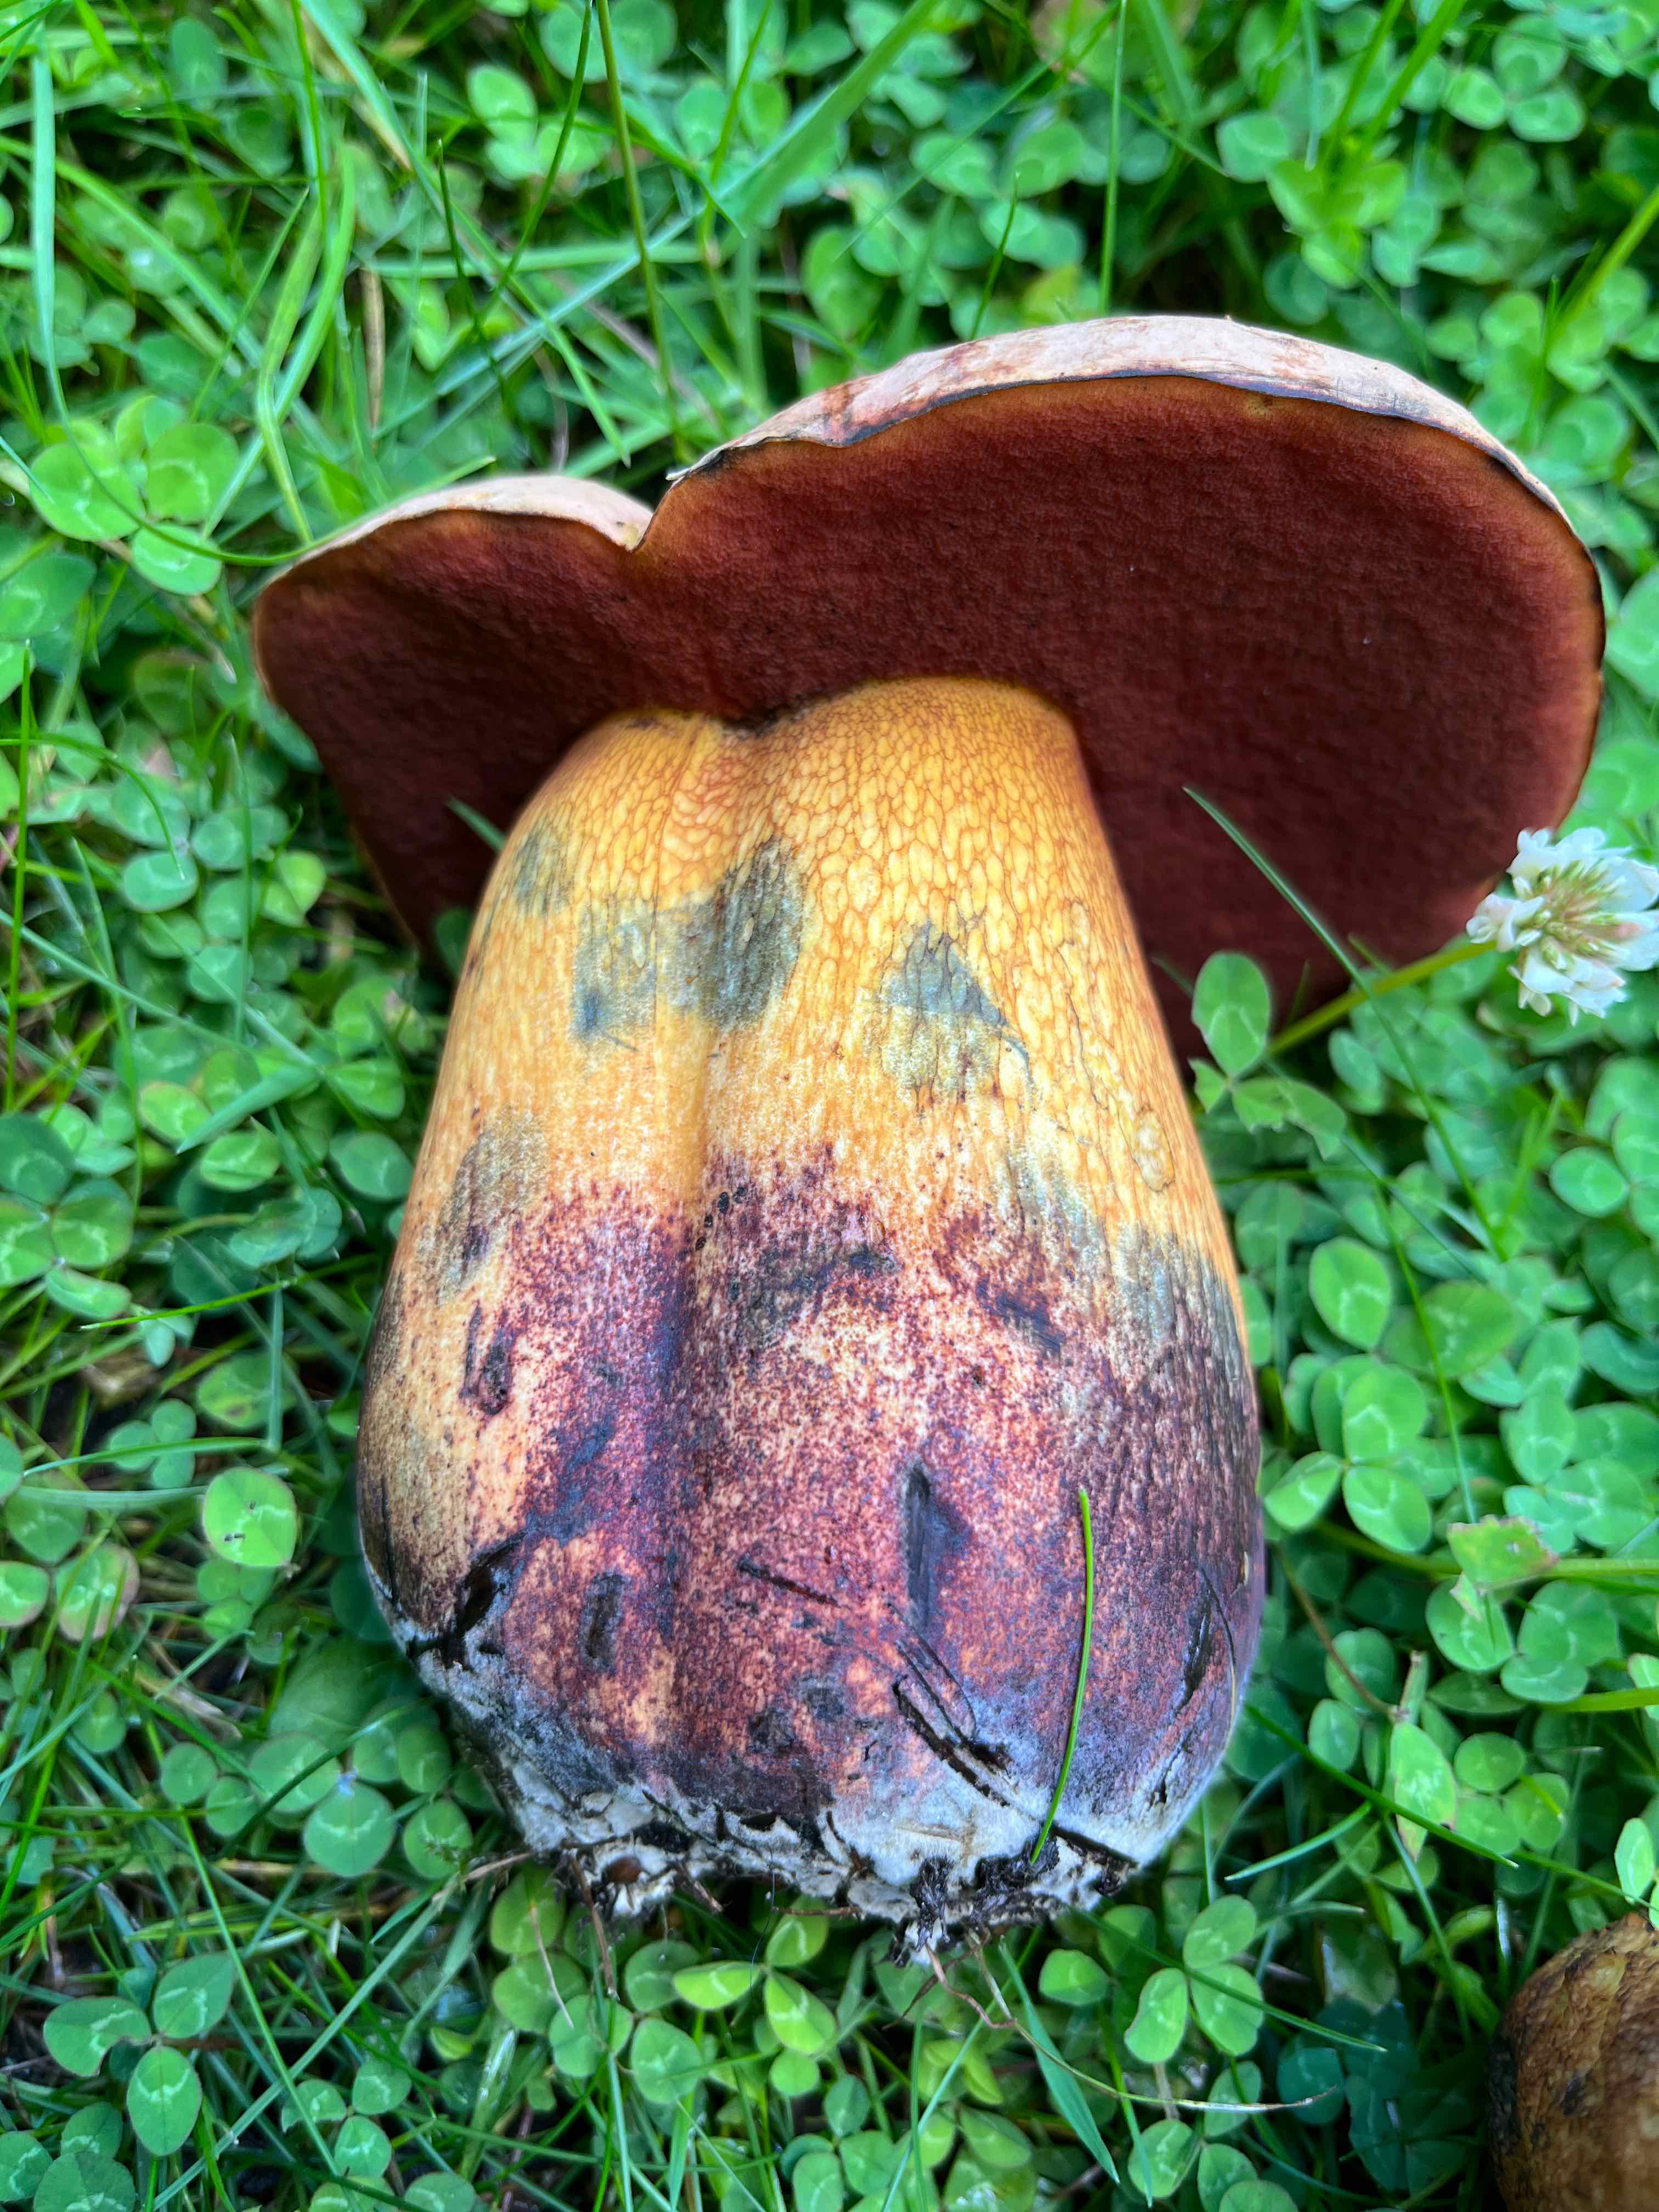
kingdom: Fungi
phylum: Basidiomycota
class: Agaricomycetes
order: Boletales
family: Boletaceae
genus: Suillellus
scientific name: Suillellus luridus
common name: netstokket indigorørhat
